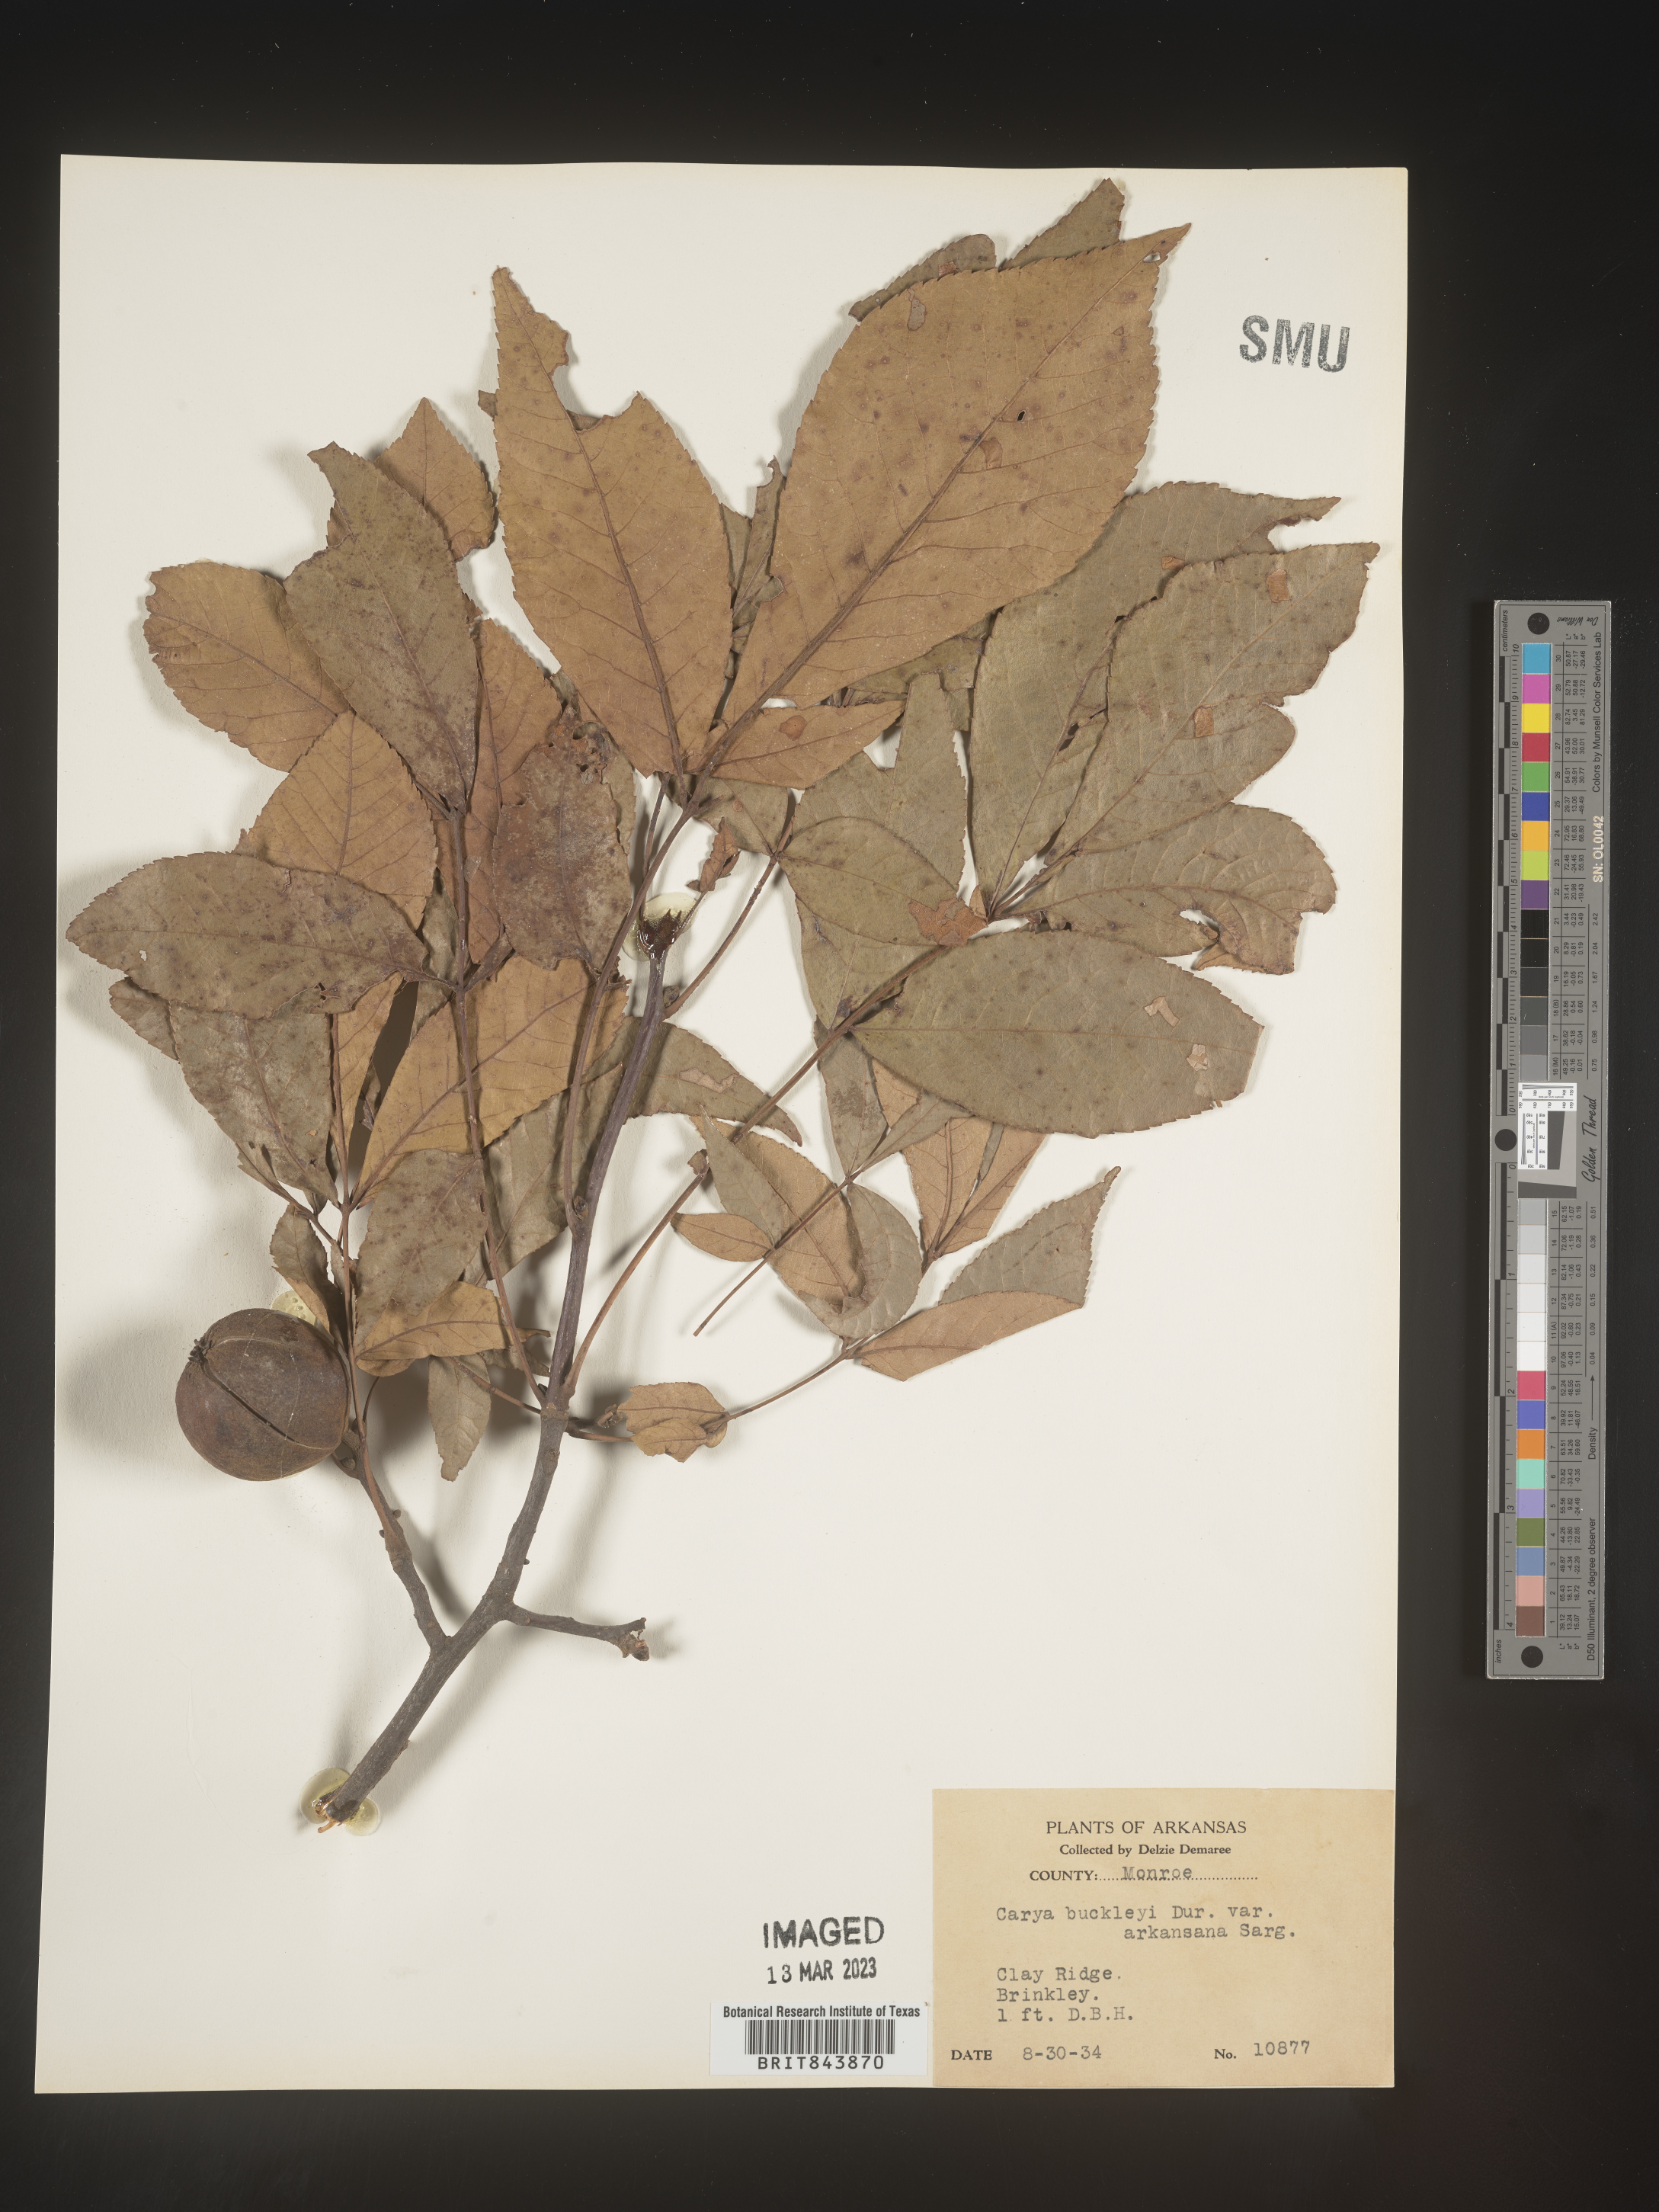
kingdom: Plantae
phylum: Tracheophyta
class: Magnoliopsida
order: Fagales
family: Juglandaceae
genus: Carya
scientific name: Carya texana
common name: Black hickory
